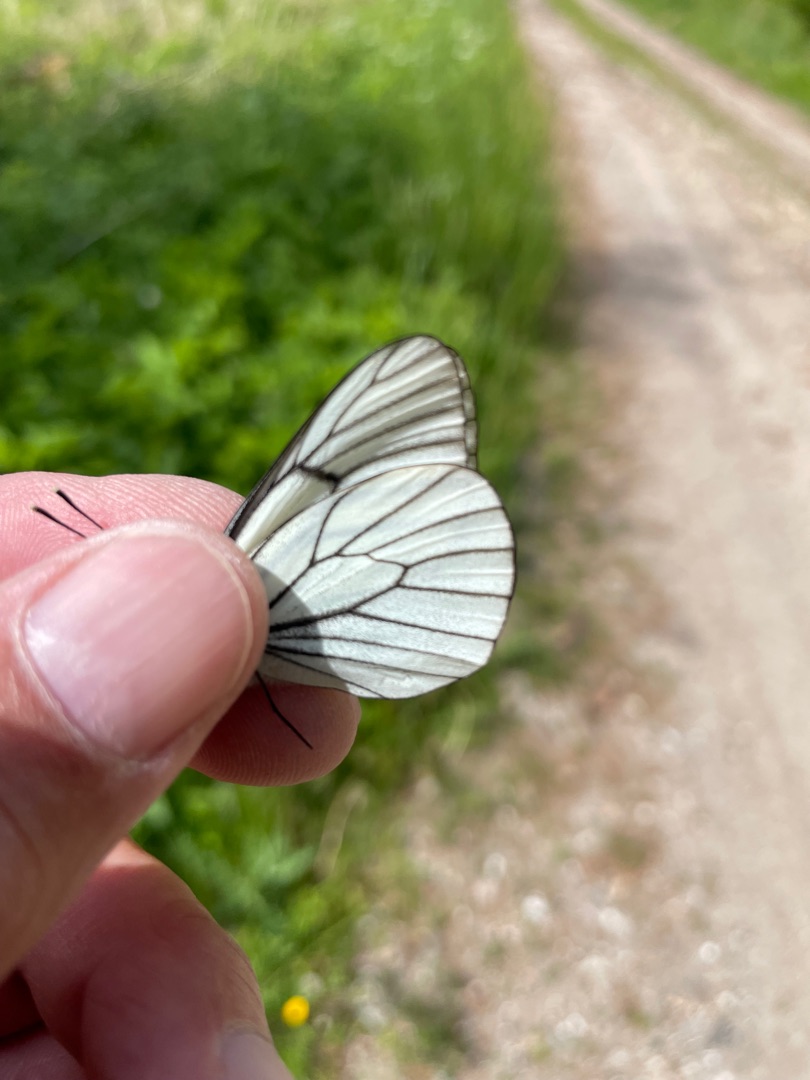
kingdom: Animalia
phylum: Arthropoda
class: Insecta
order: Lepidoptera
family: Pieridae
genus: Aporia
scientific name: Aporia crataegi
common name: Sortåret hvidvinge
